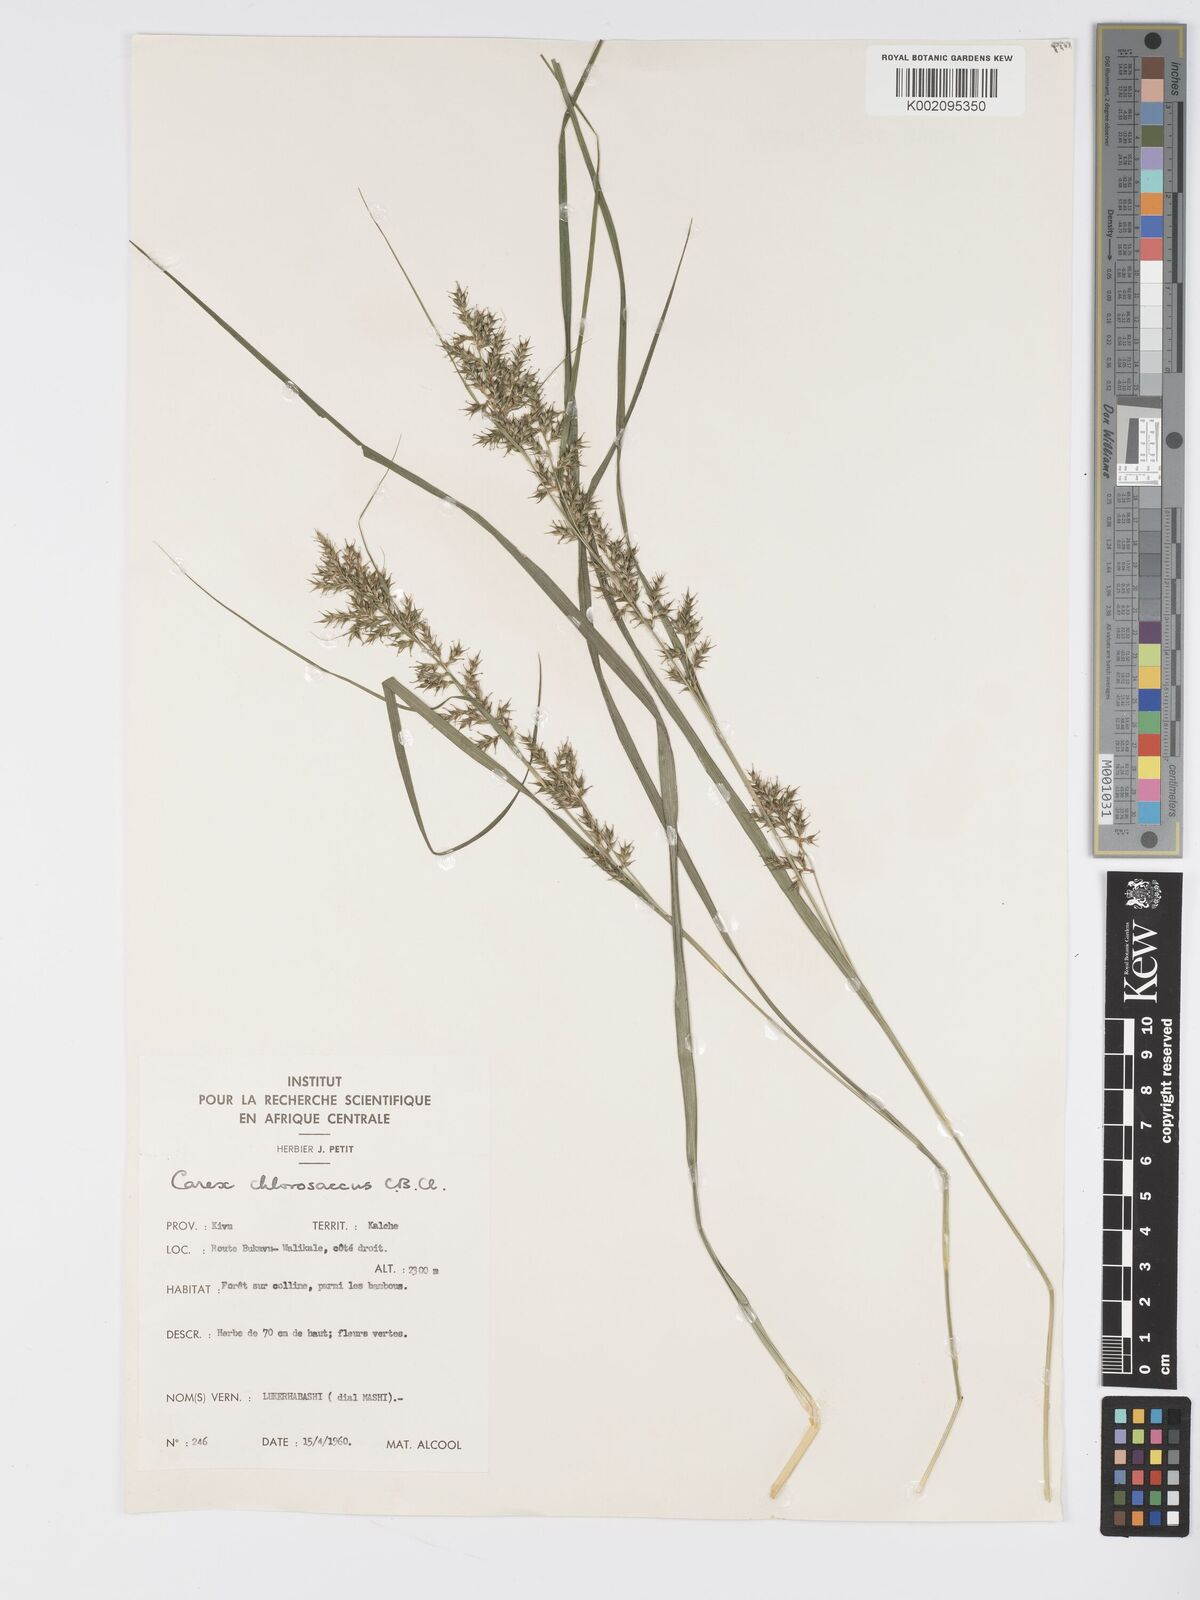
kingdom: Plantae
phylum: Tracheophyta
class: Liliopsida
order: Poales
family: Cyperaceae
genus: Carex
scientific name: Carex chlorosaccus
